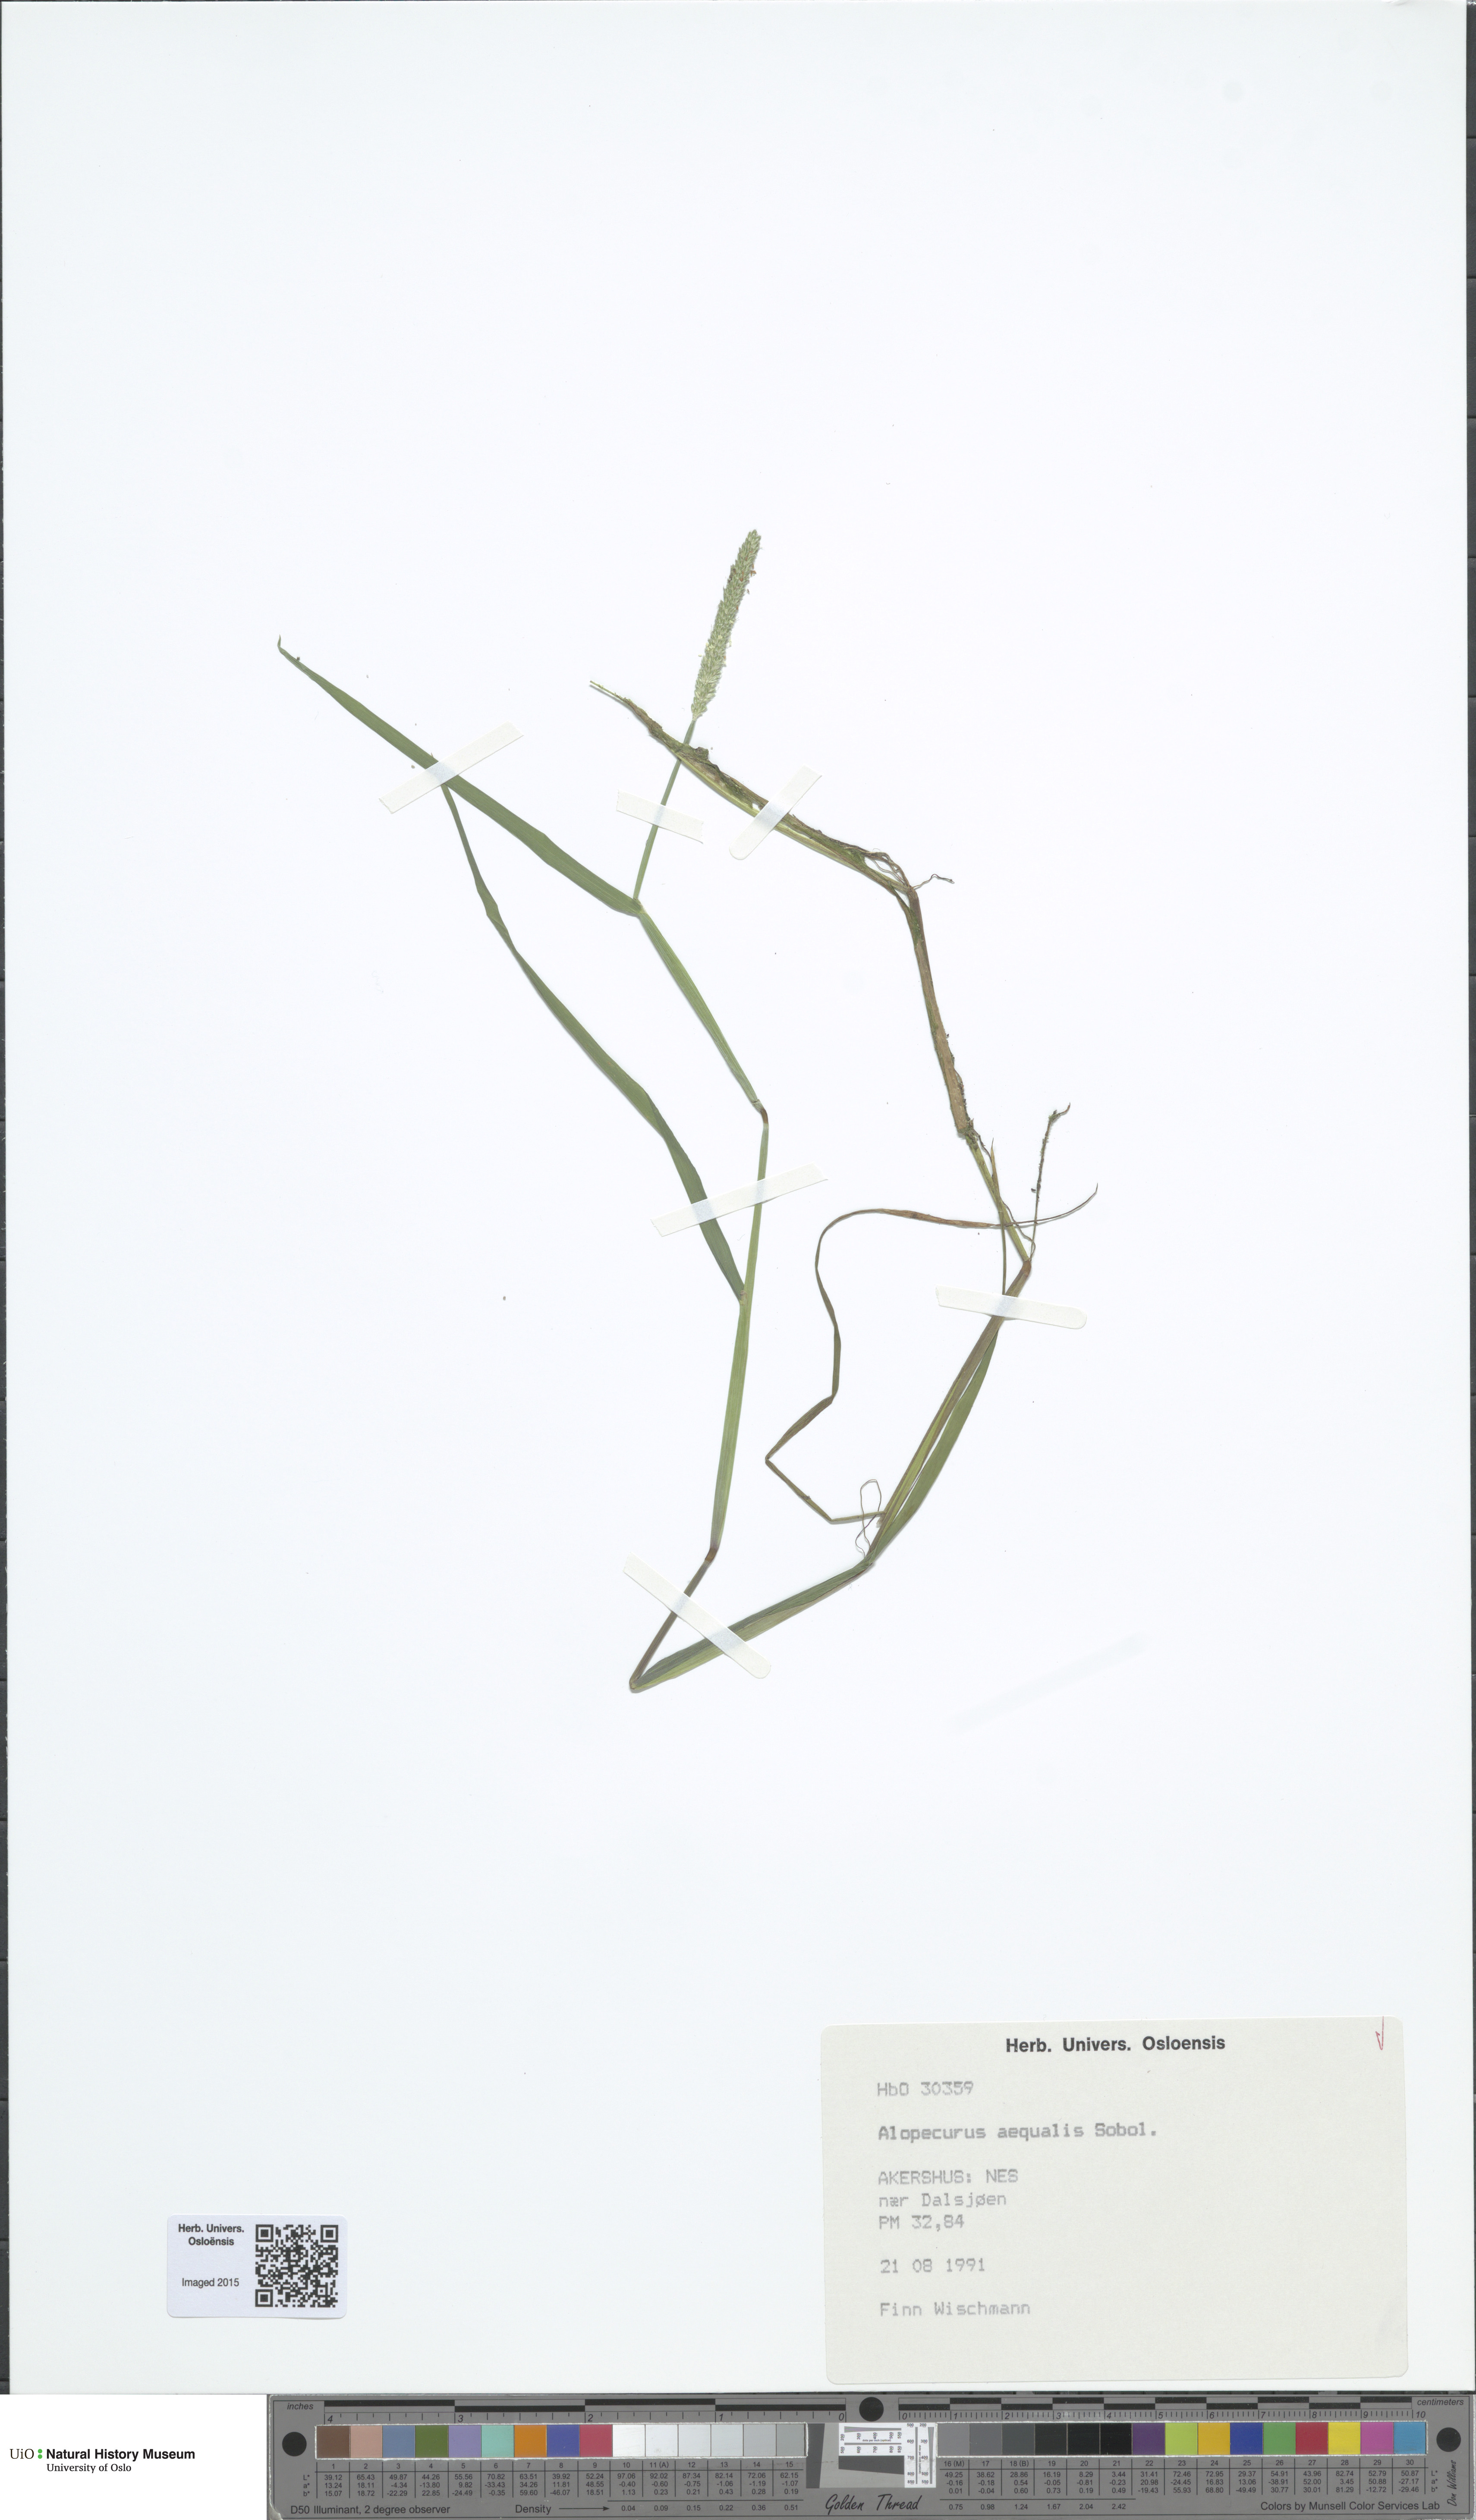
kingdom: Plantae
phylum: Tracheophyta
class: Liliopsida
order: Poales
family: Poaceae
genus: Alopecurus
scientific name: Alopecurus aequalis
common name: Orange foxtail
